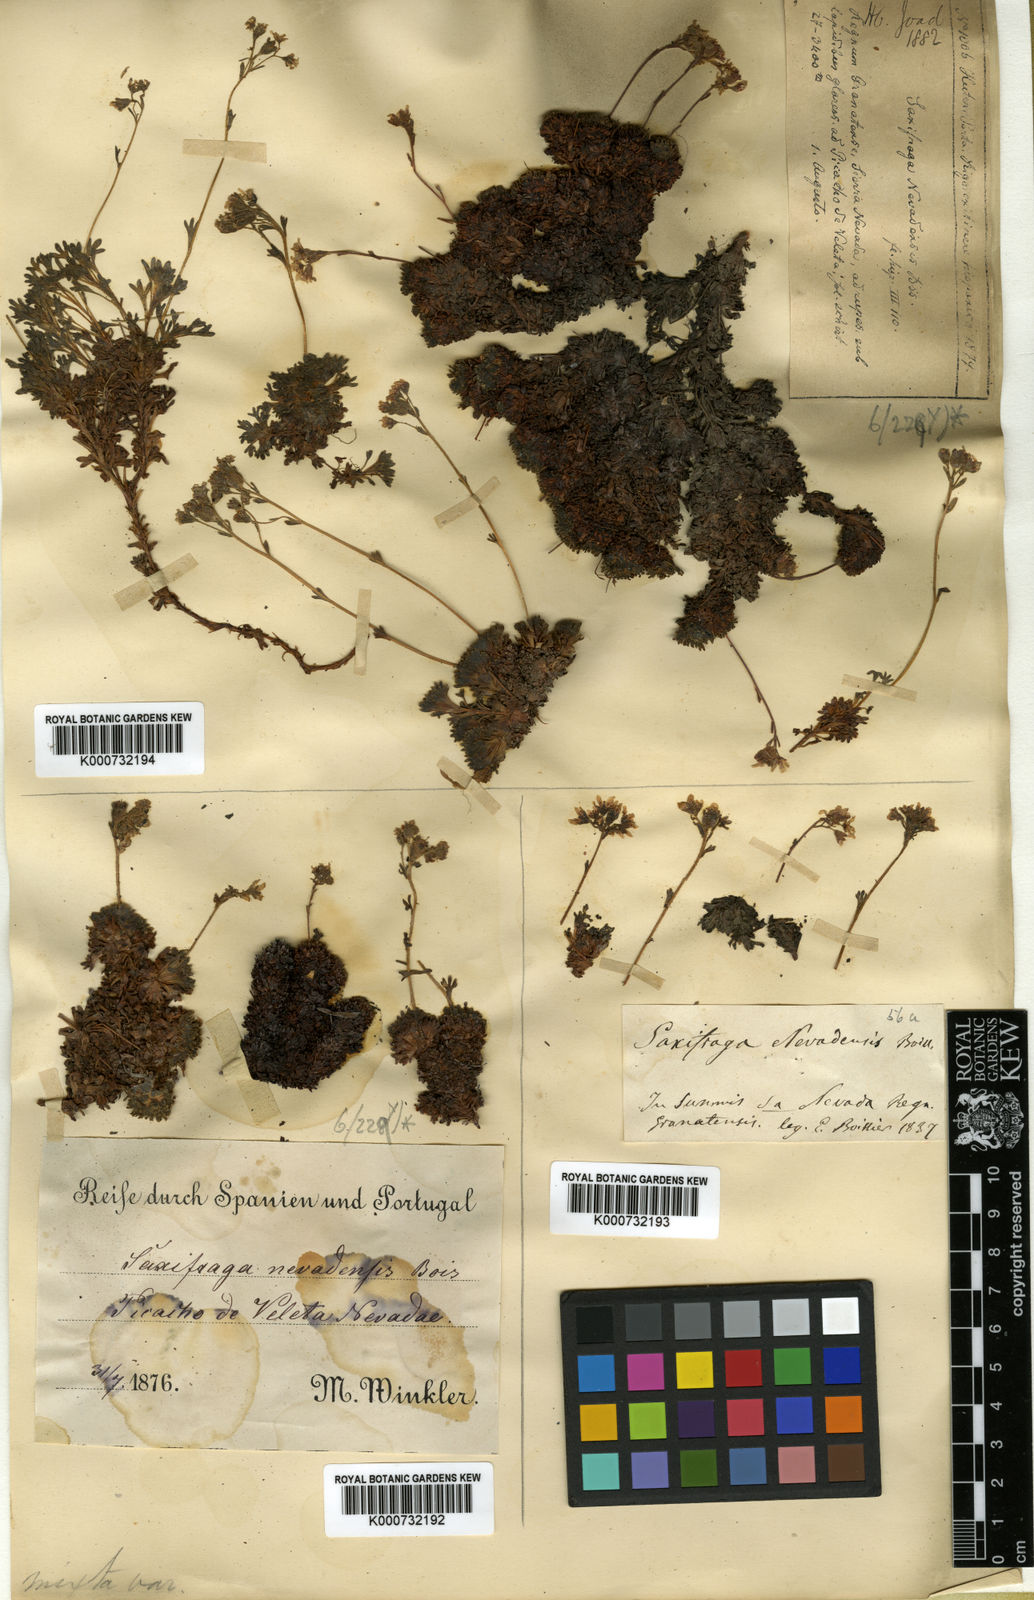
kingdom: Plantae
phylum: Tracheophyta
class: Magnoliopsida
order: Saxifragales
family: Saxifragaceae
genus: Saxifraga
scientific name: Saxifraga nevadensis
